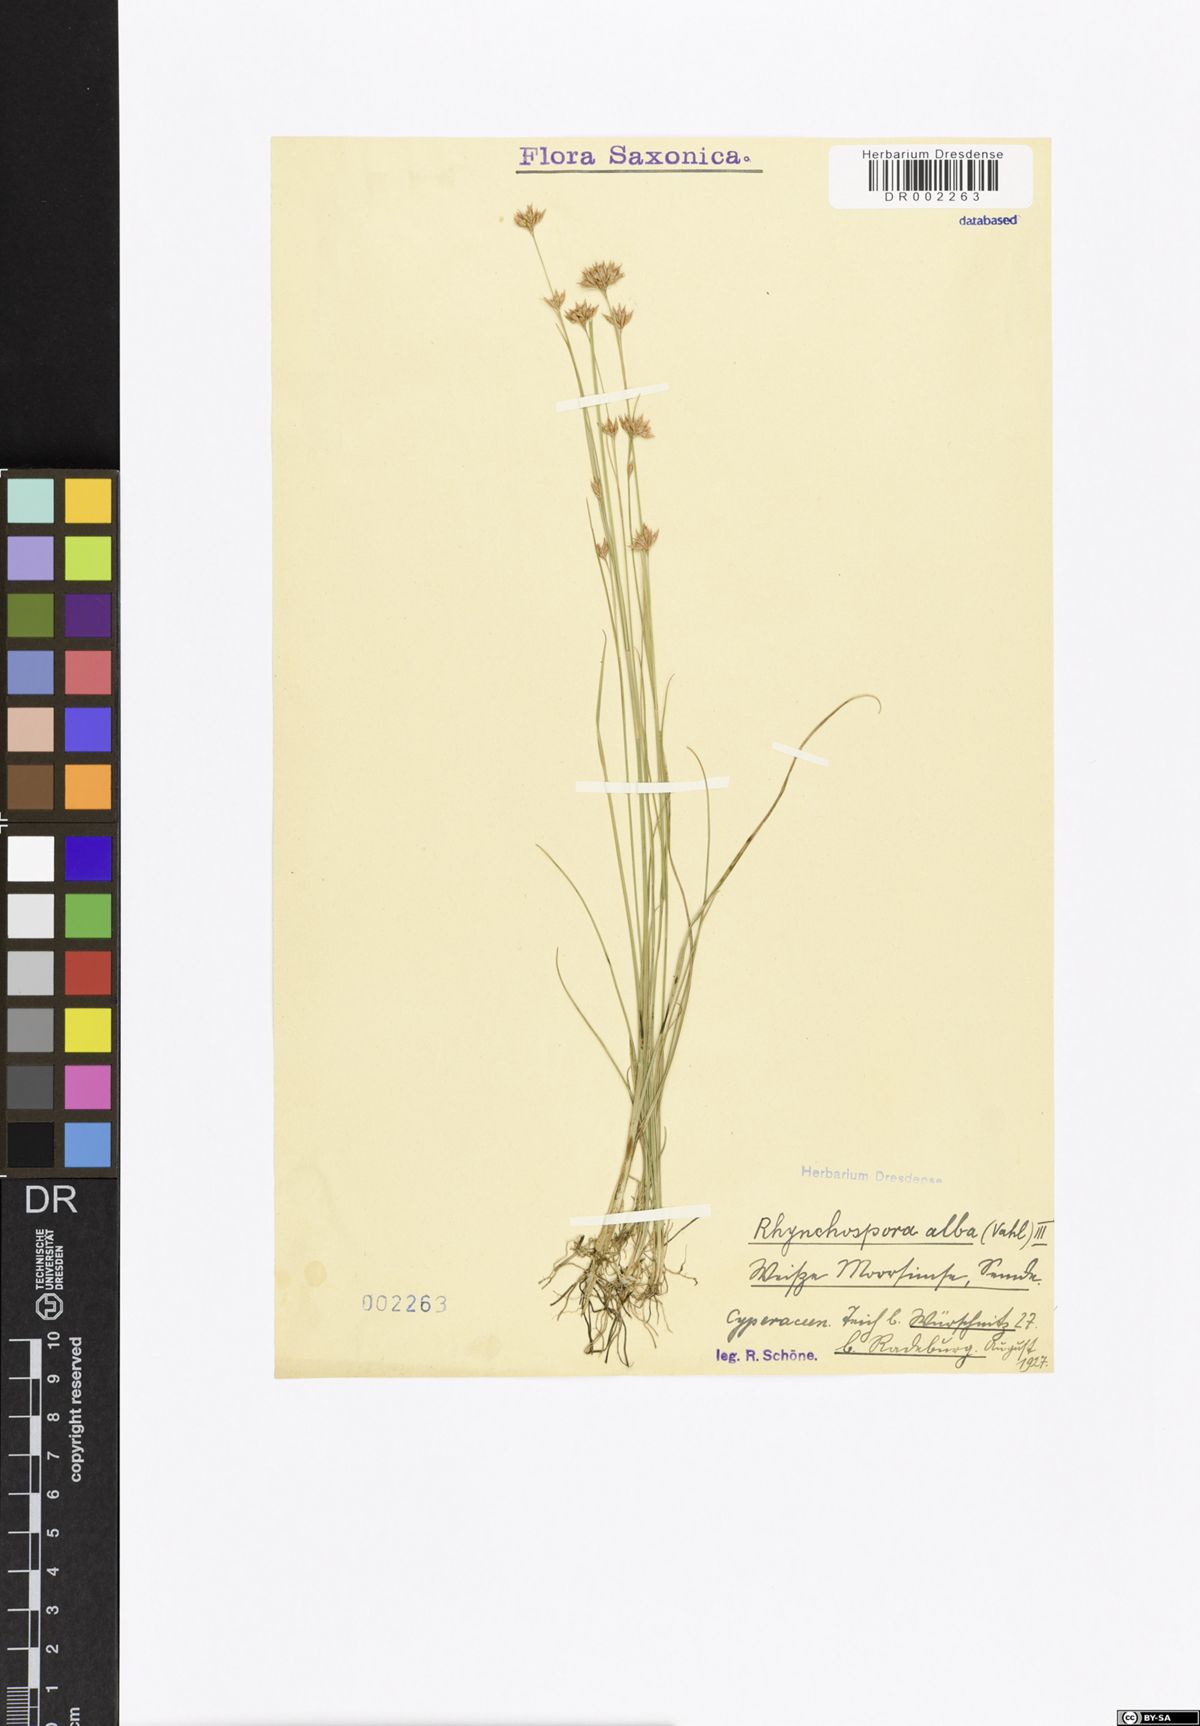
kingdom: Plantae
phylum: Tracheophyta
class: Liliopsida
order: Poales
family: Cyperaceae
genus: Rhynchospora
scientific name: Rhynchospora alba
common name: White beak-sedge
